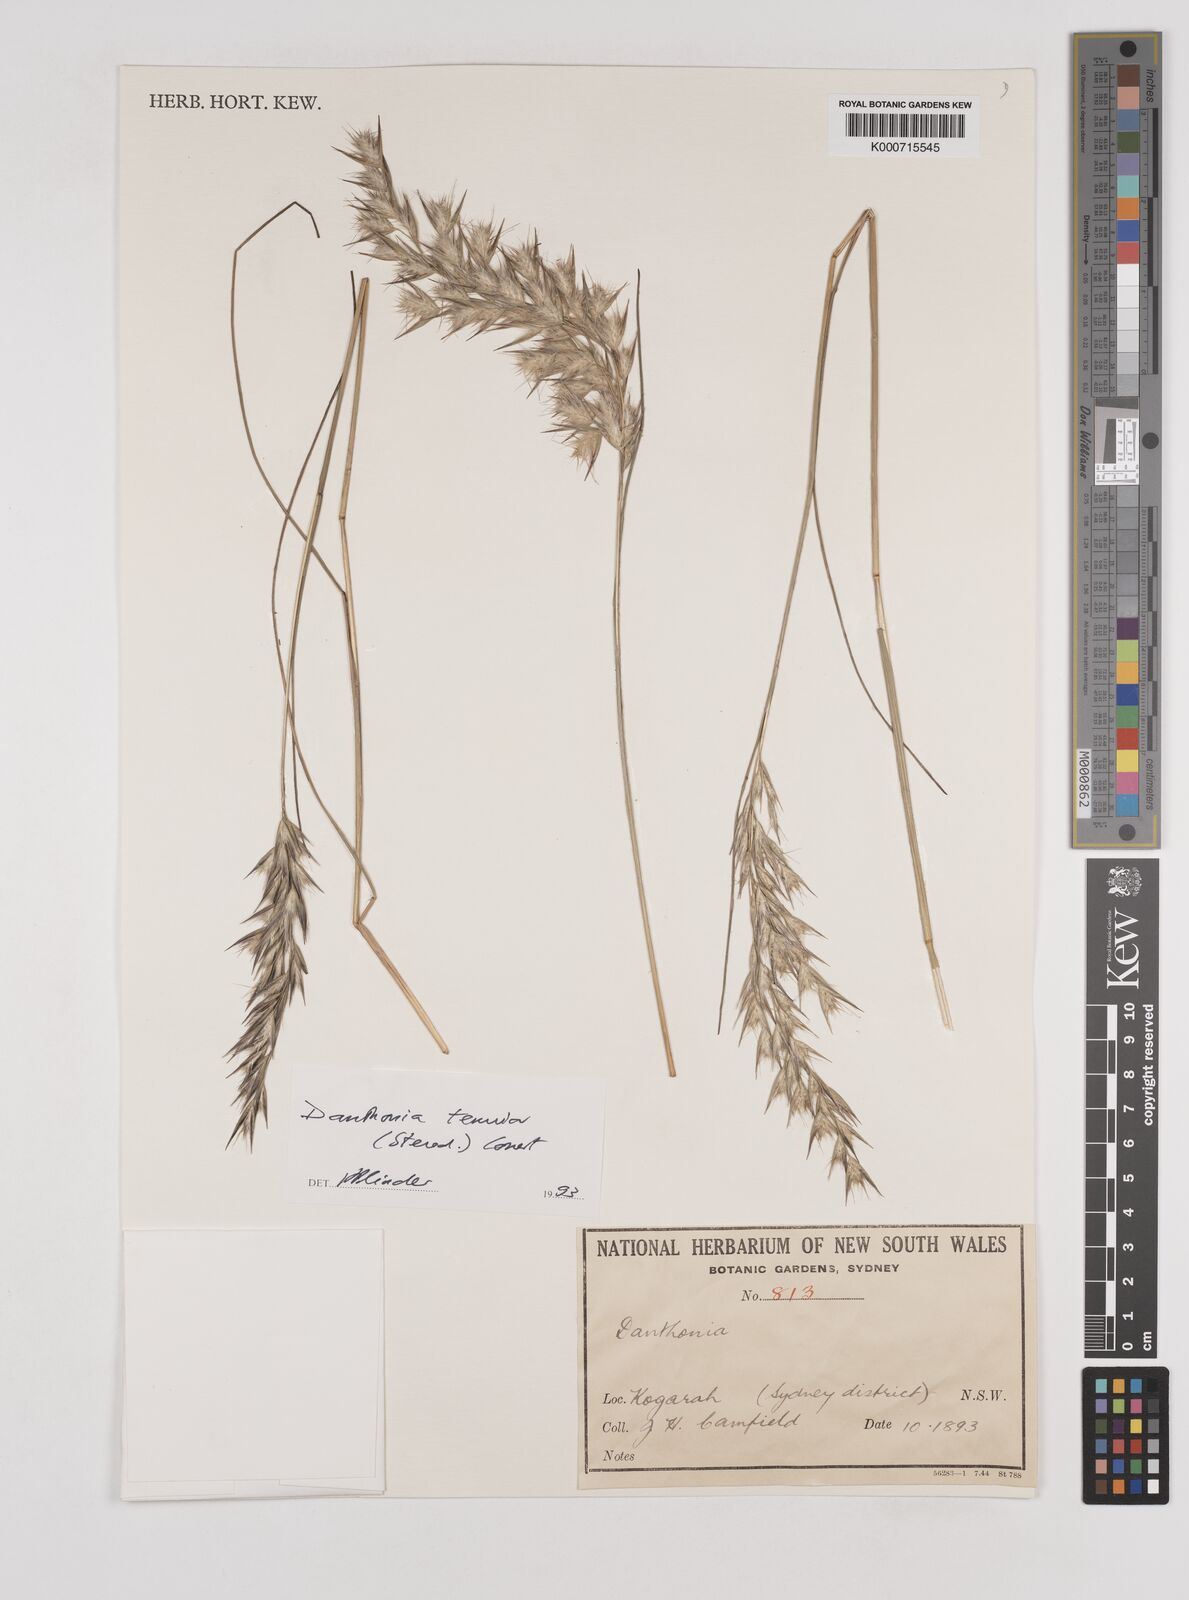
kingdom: Plantae
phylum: Tracheophyta
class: Liliopsida
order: Poales
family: Poaceae
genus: Rytidosperma
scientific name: Rytidosperma tenuius
